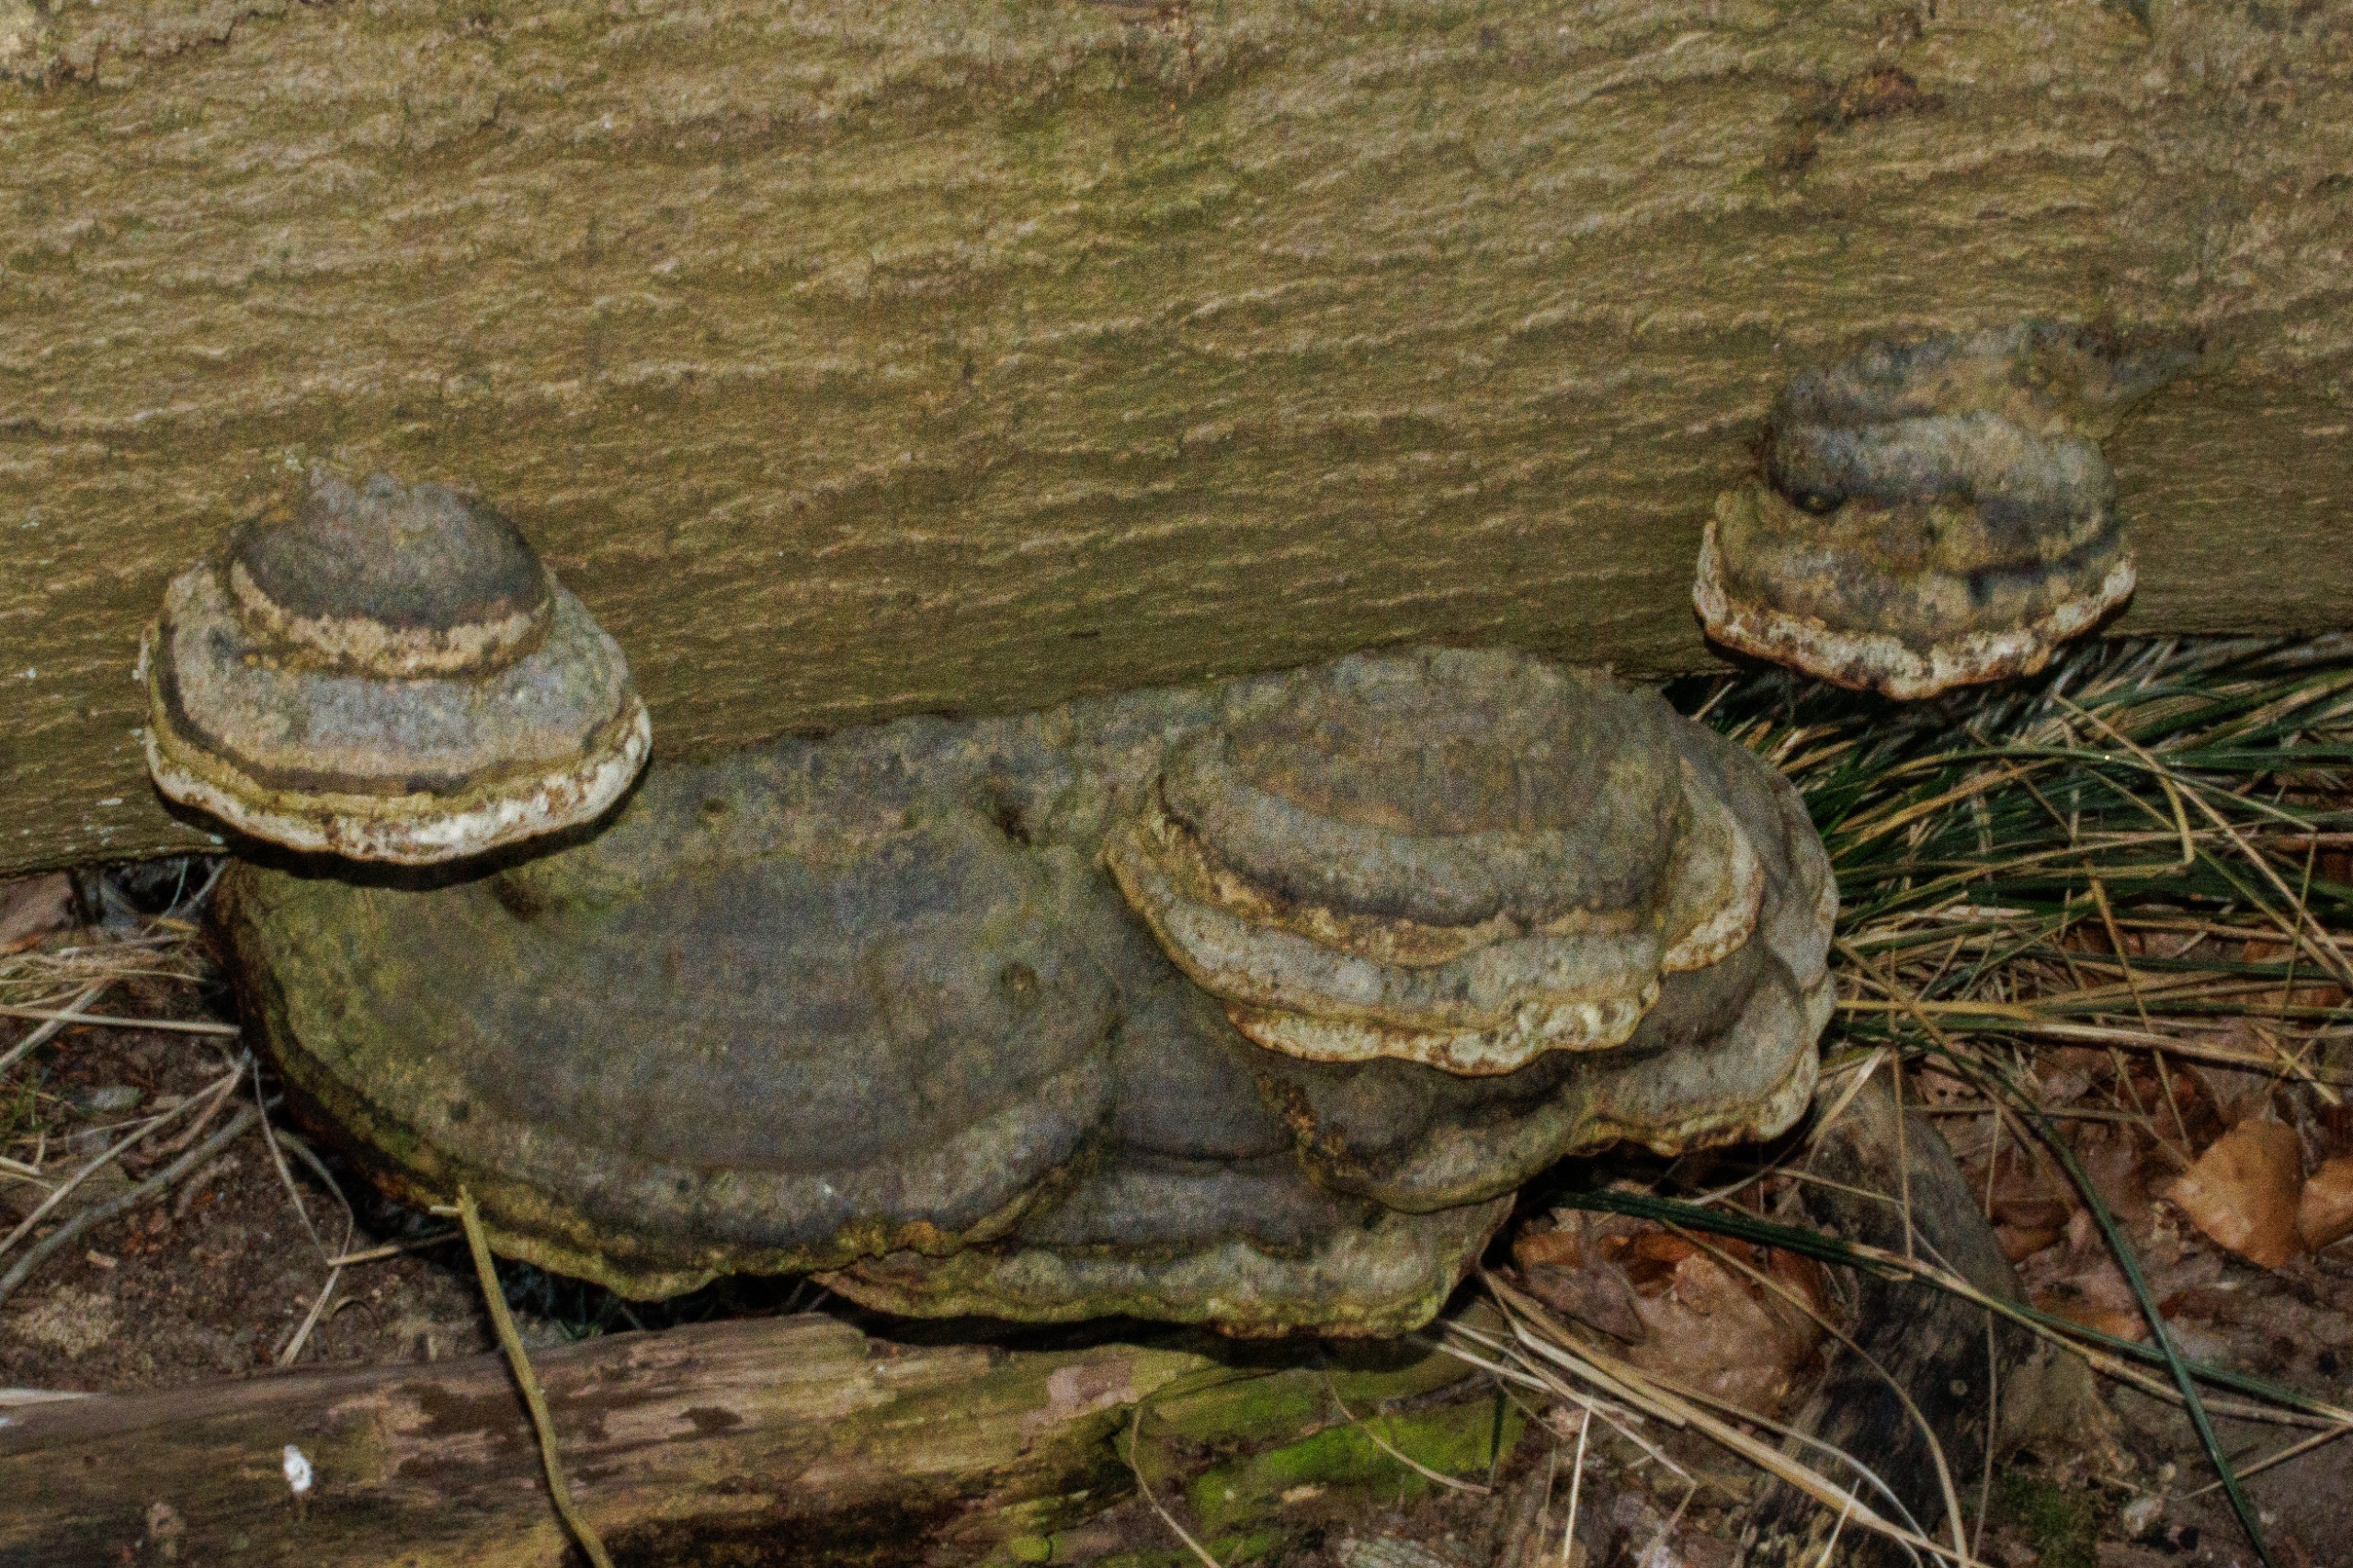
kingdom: Fungi
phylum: Basidiomycota
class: Agaricomycetes
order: Polyporales
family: Polyporaceae
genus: Fomes
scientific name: Fomes fomentarius
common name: Tøndersvamp
